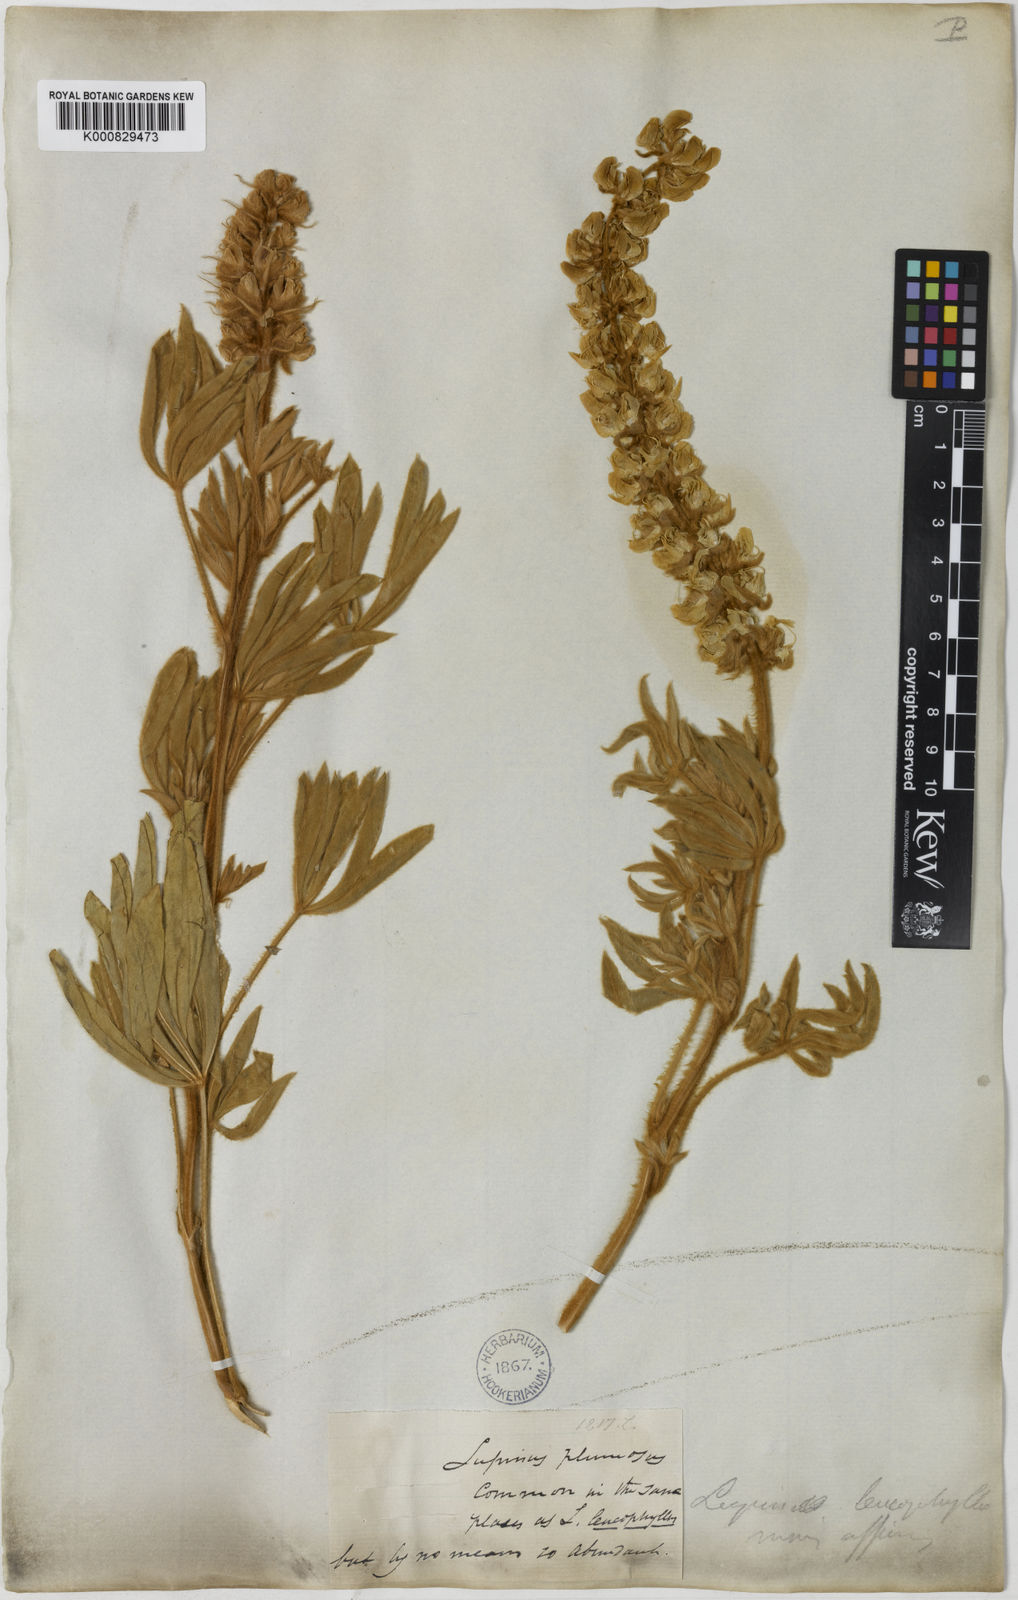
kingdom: Plantae
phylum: Tracheophyta
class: Magnoliopsida
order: Fabales
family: Fabaceae
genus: Lupinus
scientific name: Lupinus leucophyllus
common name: Woolly-leaf lupine
